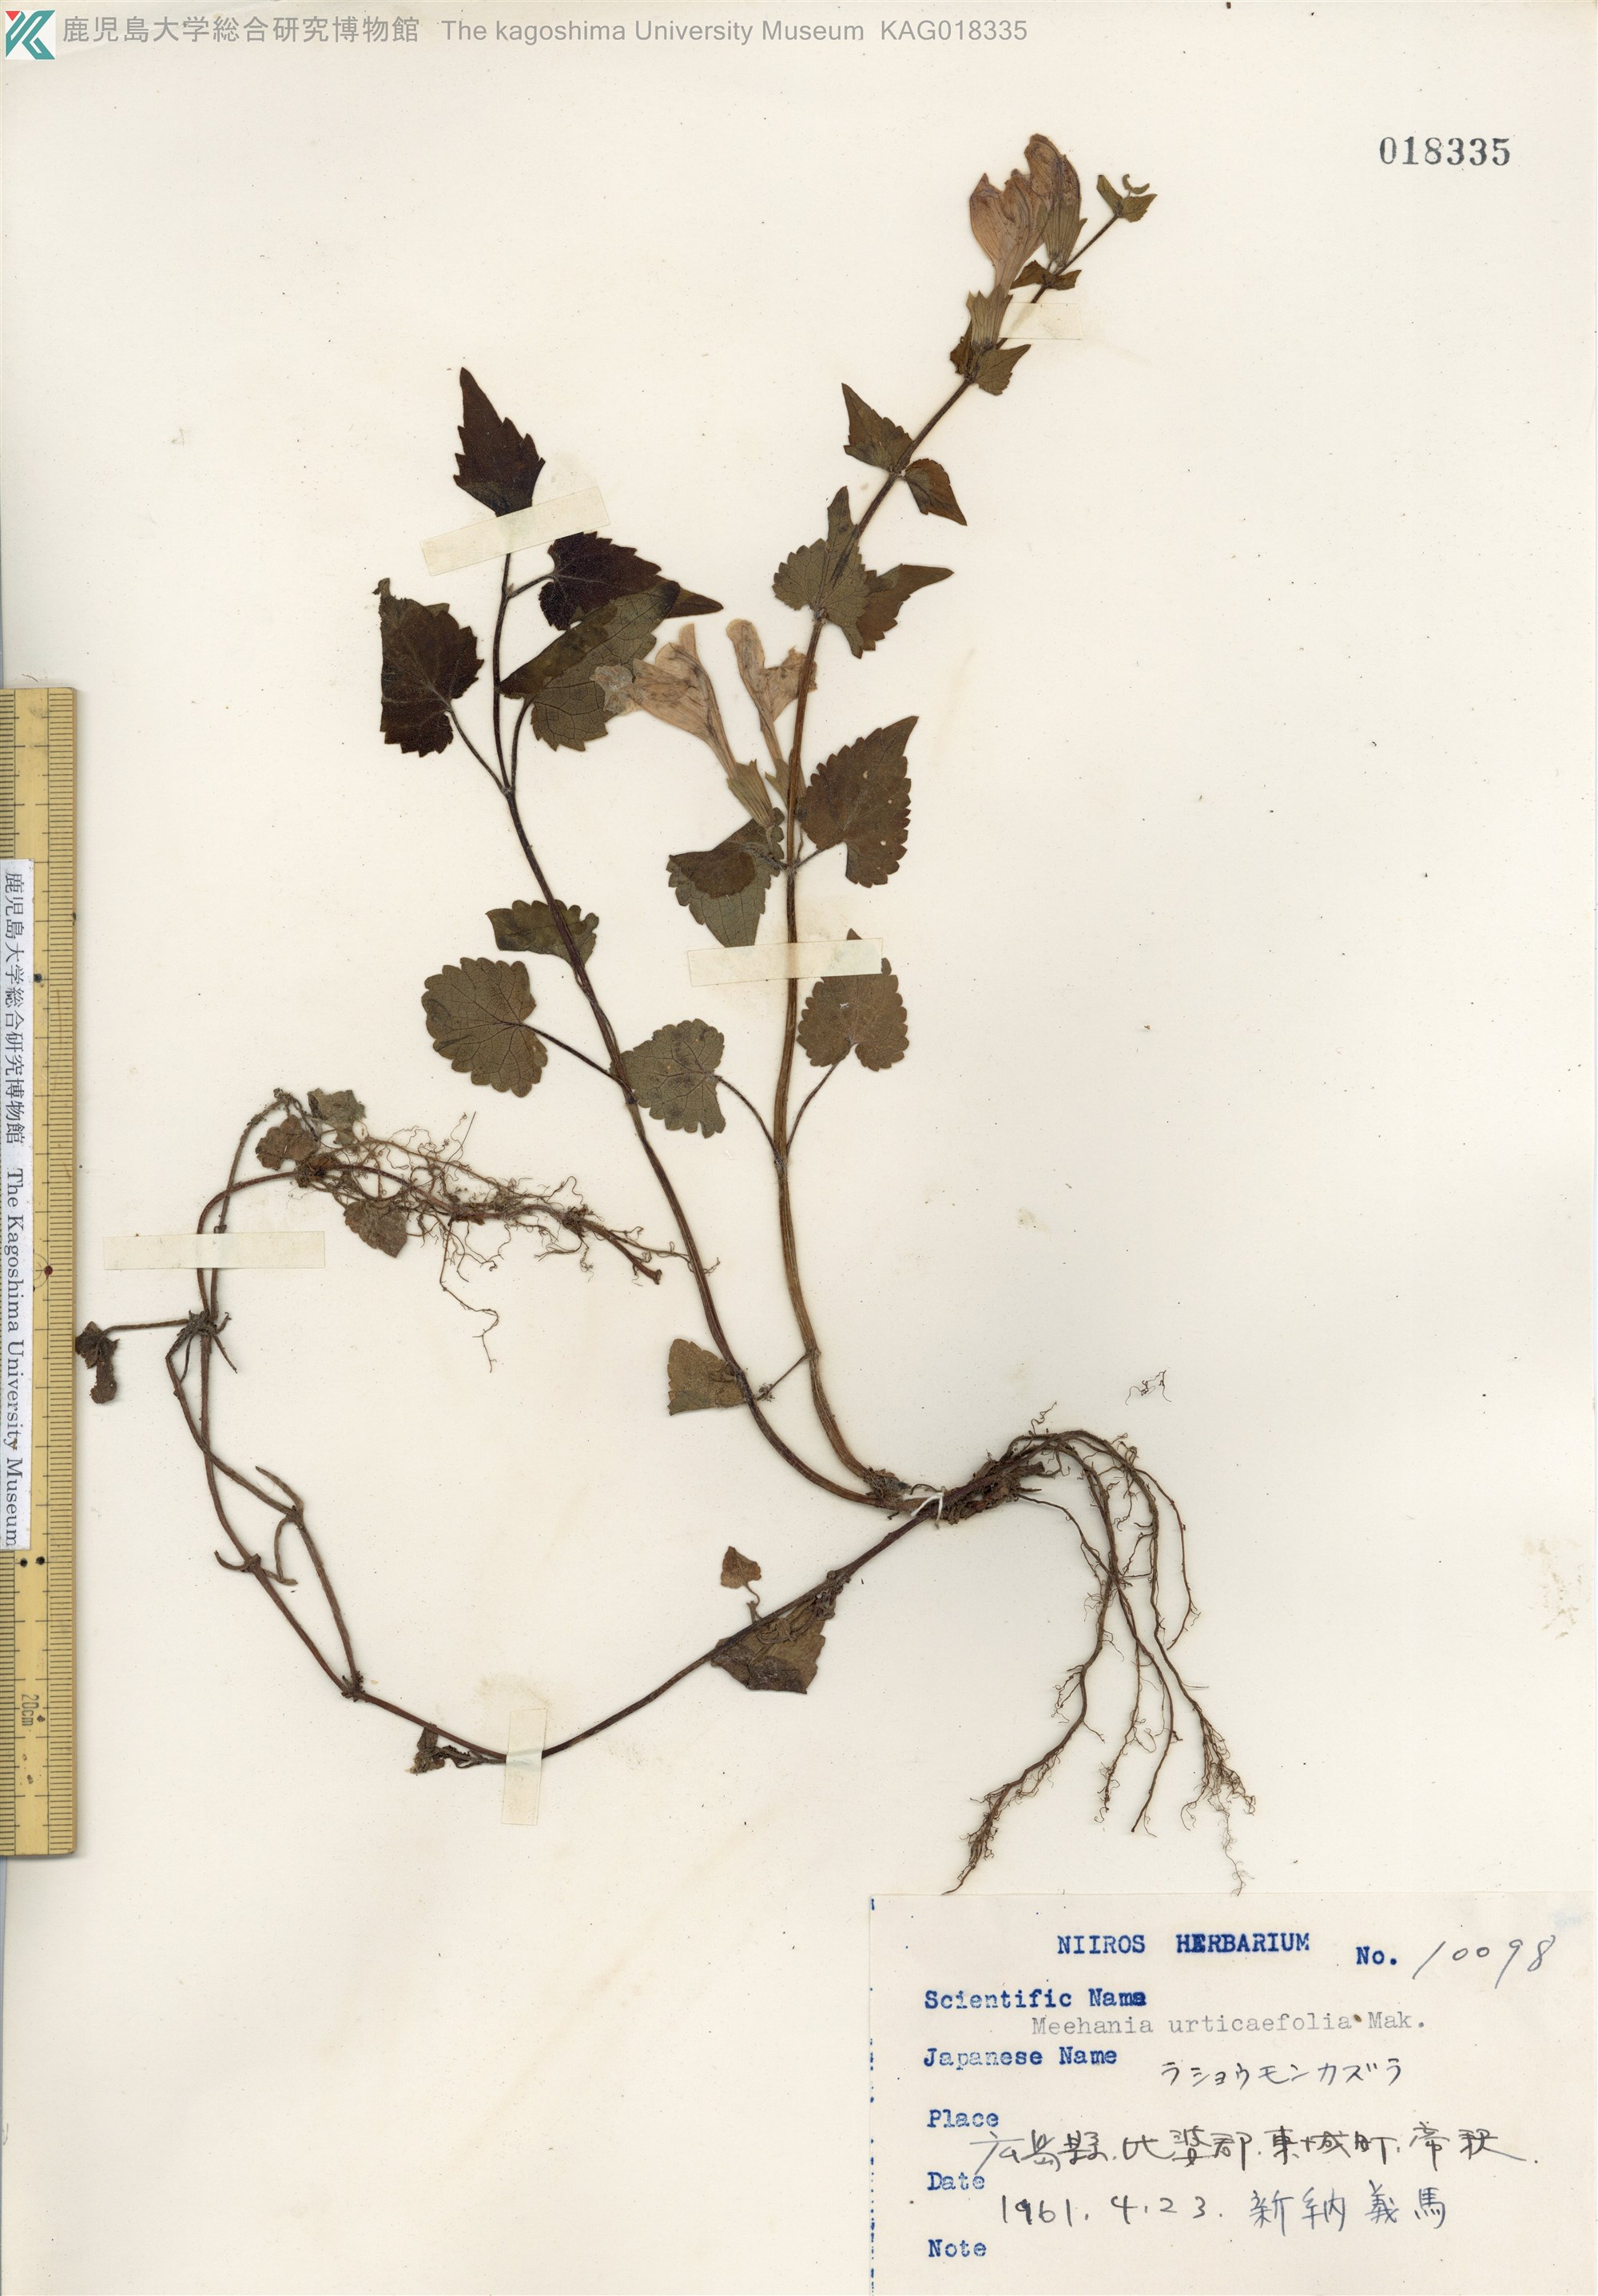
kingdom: Plantae
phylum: Tracheophyta
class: Magnoliopsida
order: Lamiales
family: Lamiaceae
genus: Meehania
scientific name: Meehania urticifolia
